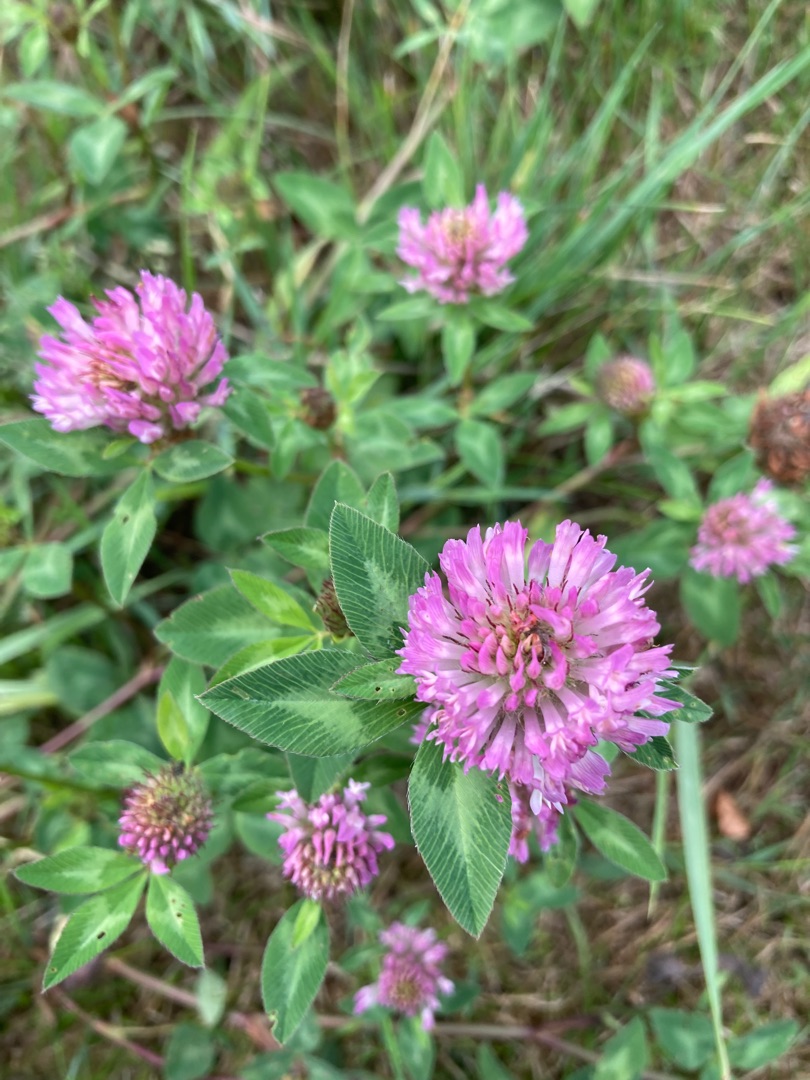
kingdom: Plantae
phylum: Tracheophyta
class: Magnoliopsida
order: Fabales
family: Fabaceae
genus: Trifolium
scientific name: Trifolium pratense
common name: Rød-kløver
